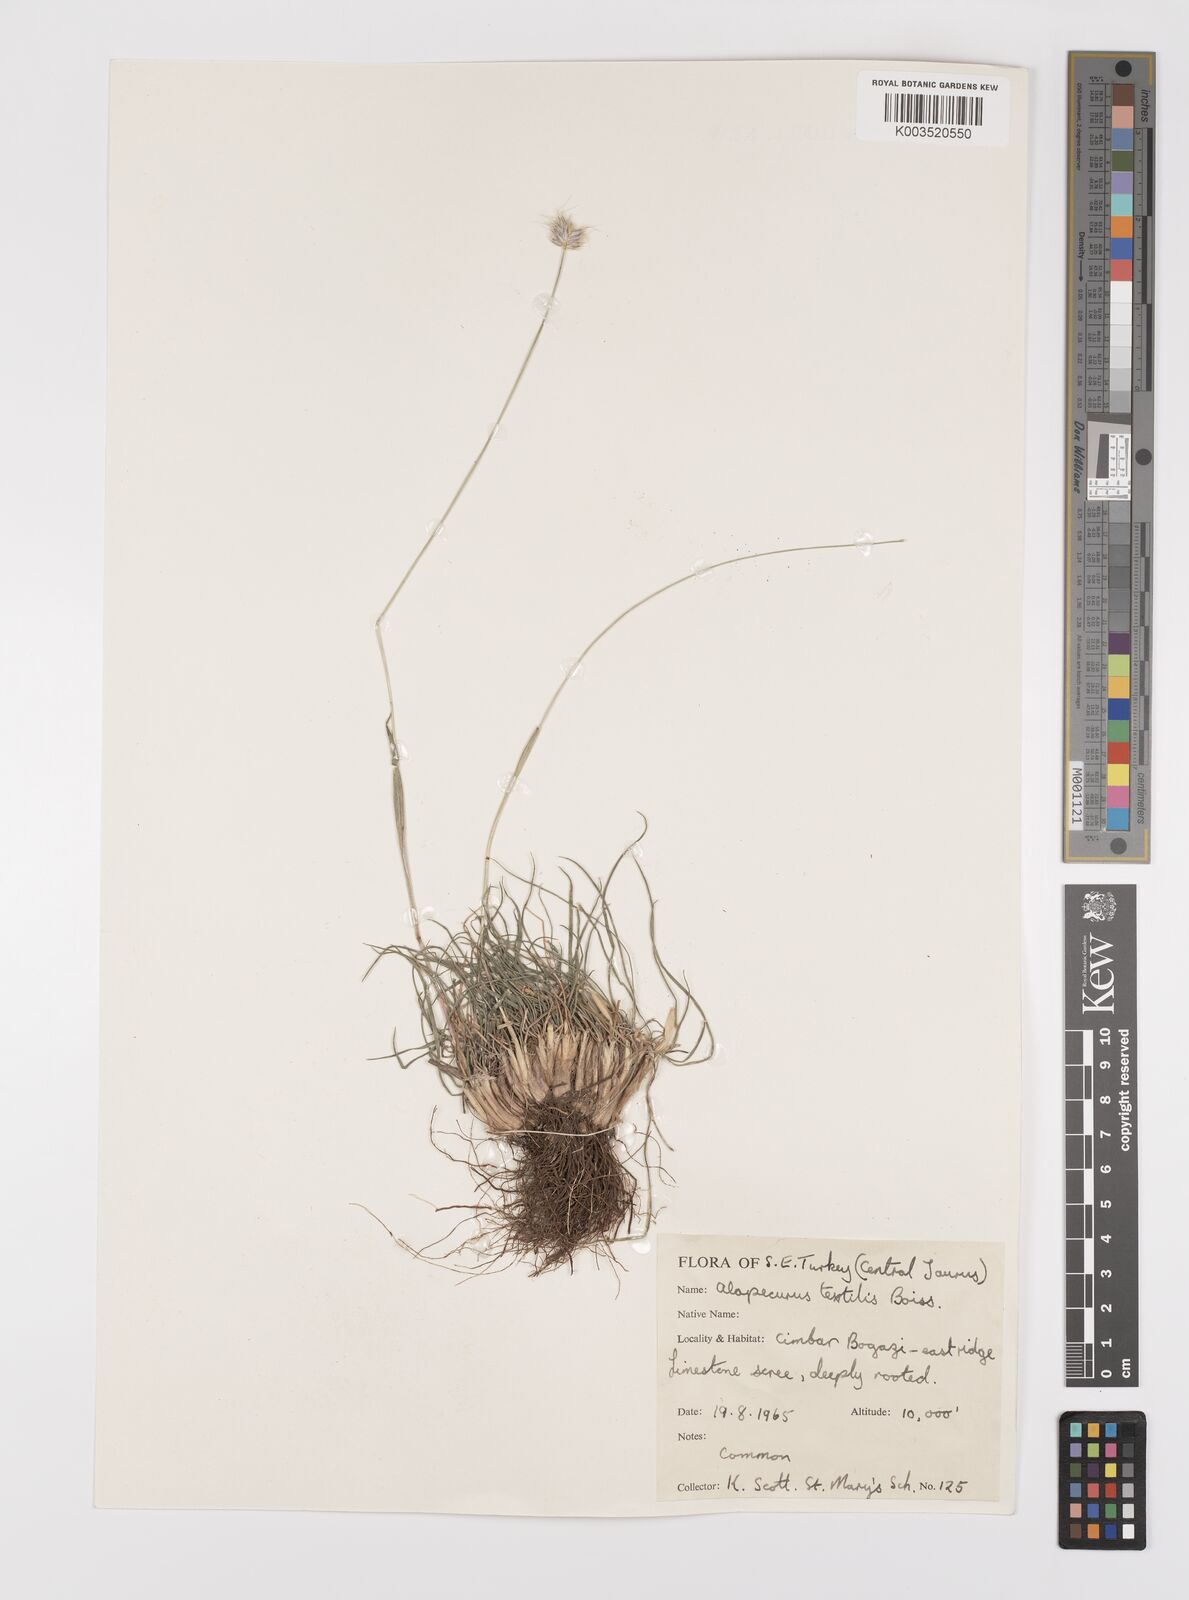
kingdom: Plantae
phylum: Tracheophyta
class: Liliopsida
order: Poales
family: Poaceae
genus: Alopecurus
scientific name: Alopecurus textilis
